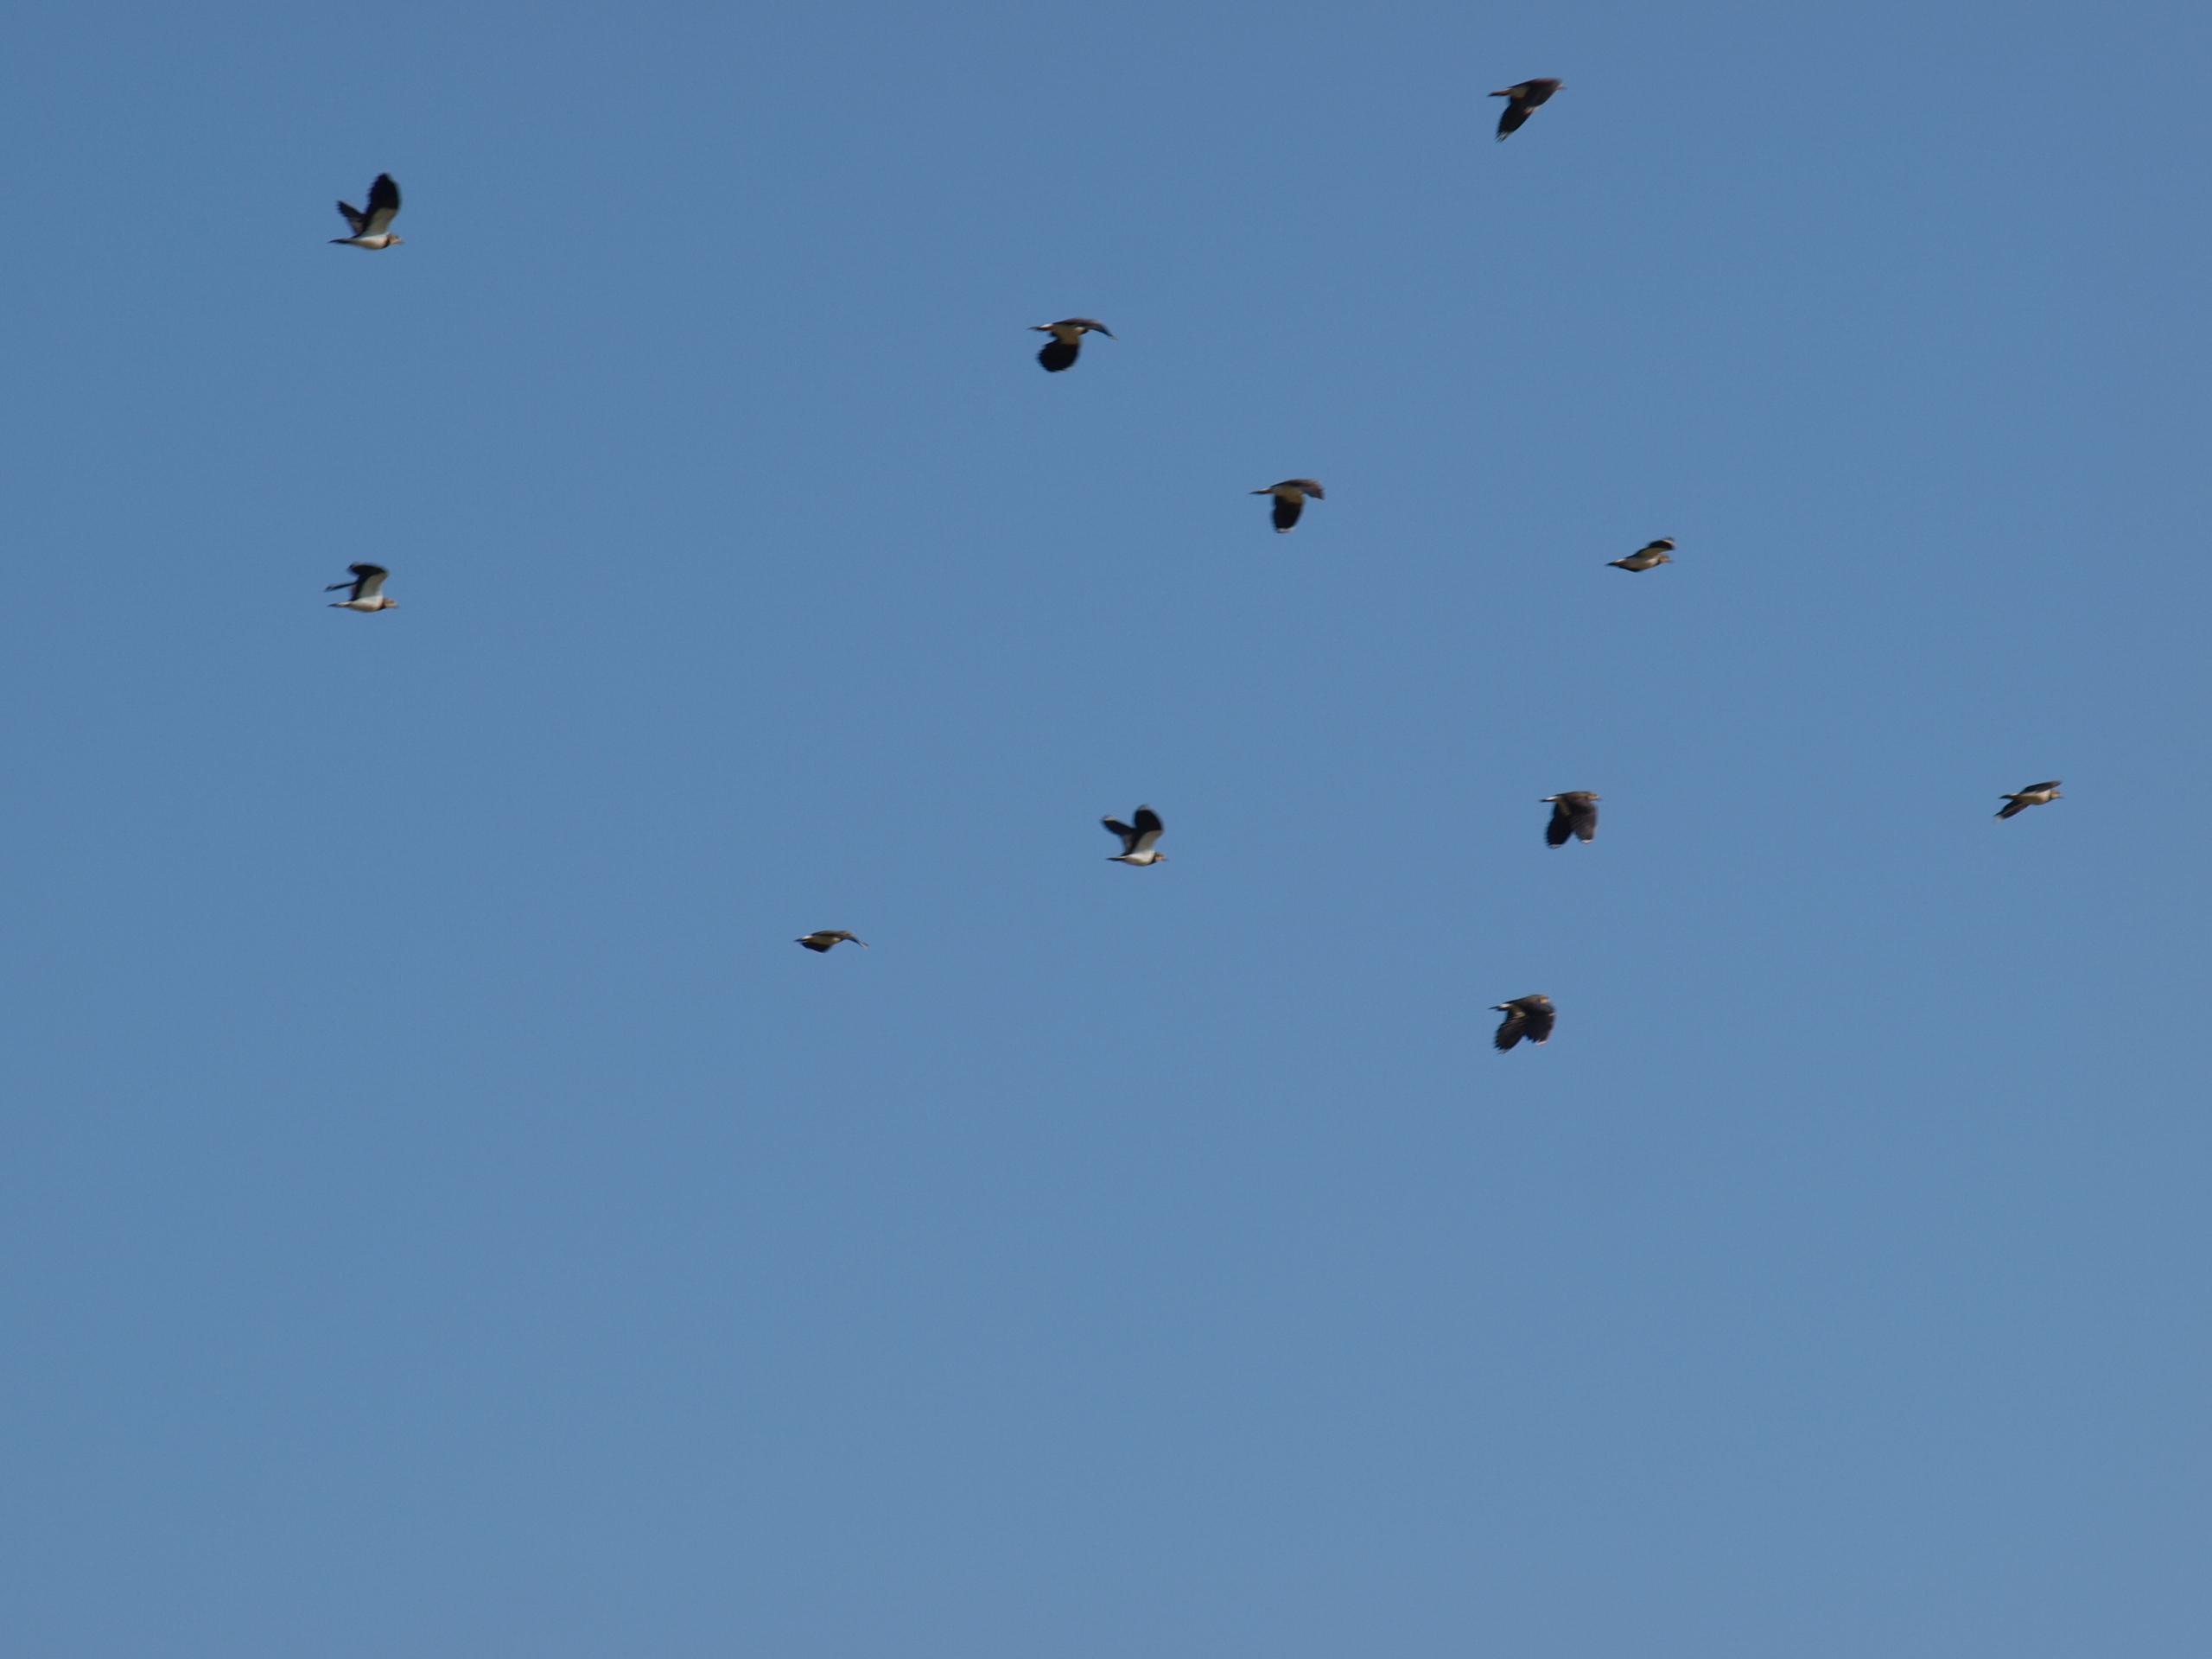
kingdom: Animalia
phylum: Chordata
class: Aves
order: Charadriiformes
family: Charadriidae
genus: Vanellus
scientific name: Vanellus vanellus
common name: Vibe
